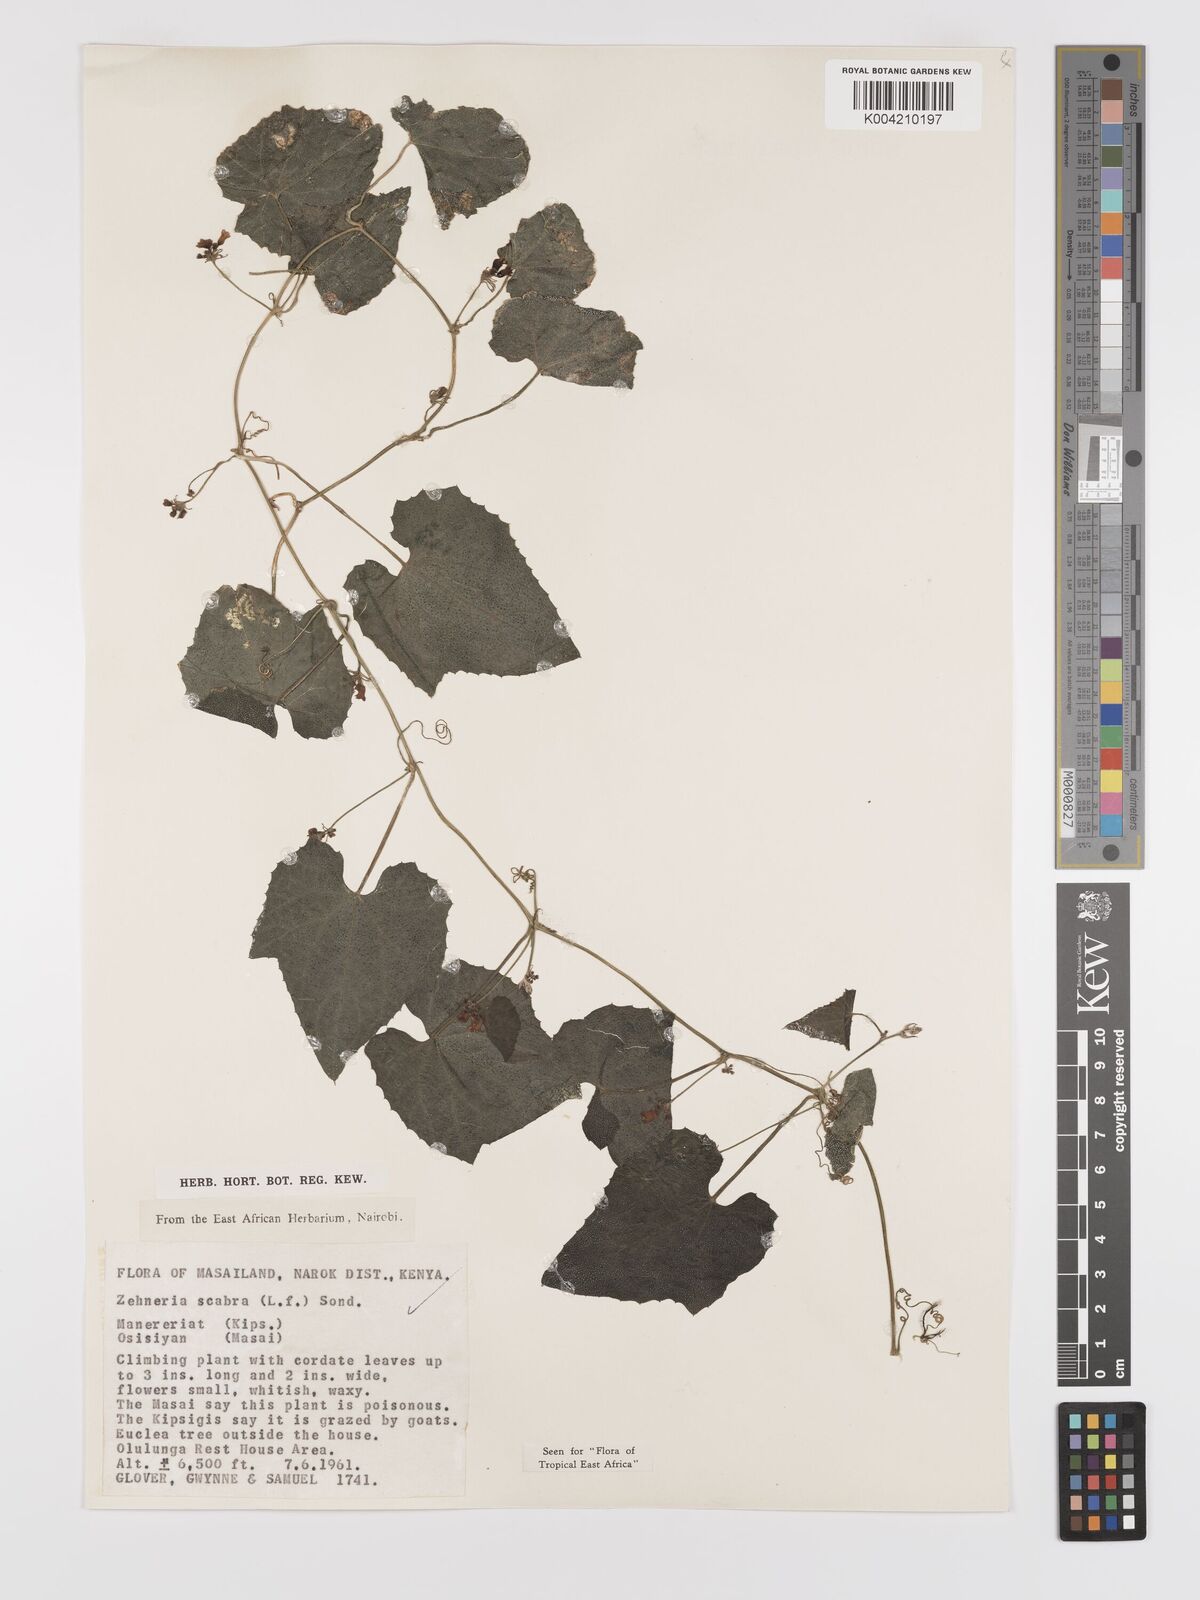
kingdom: Plantae
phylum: Tracheophyta
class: Magnoliopsida
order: Cucurbitales
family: Cucurbitaceae
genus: Zehneria
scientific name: Zehneria scabra
